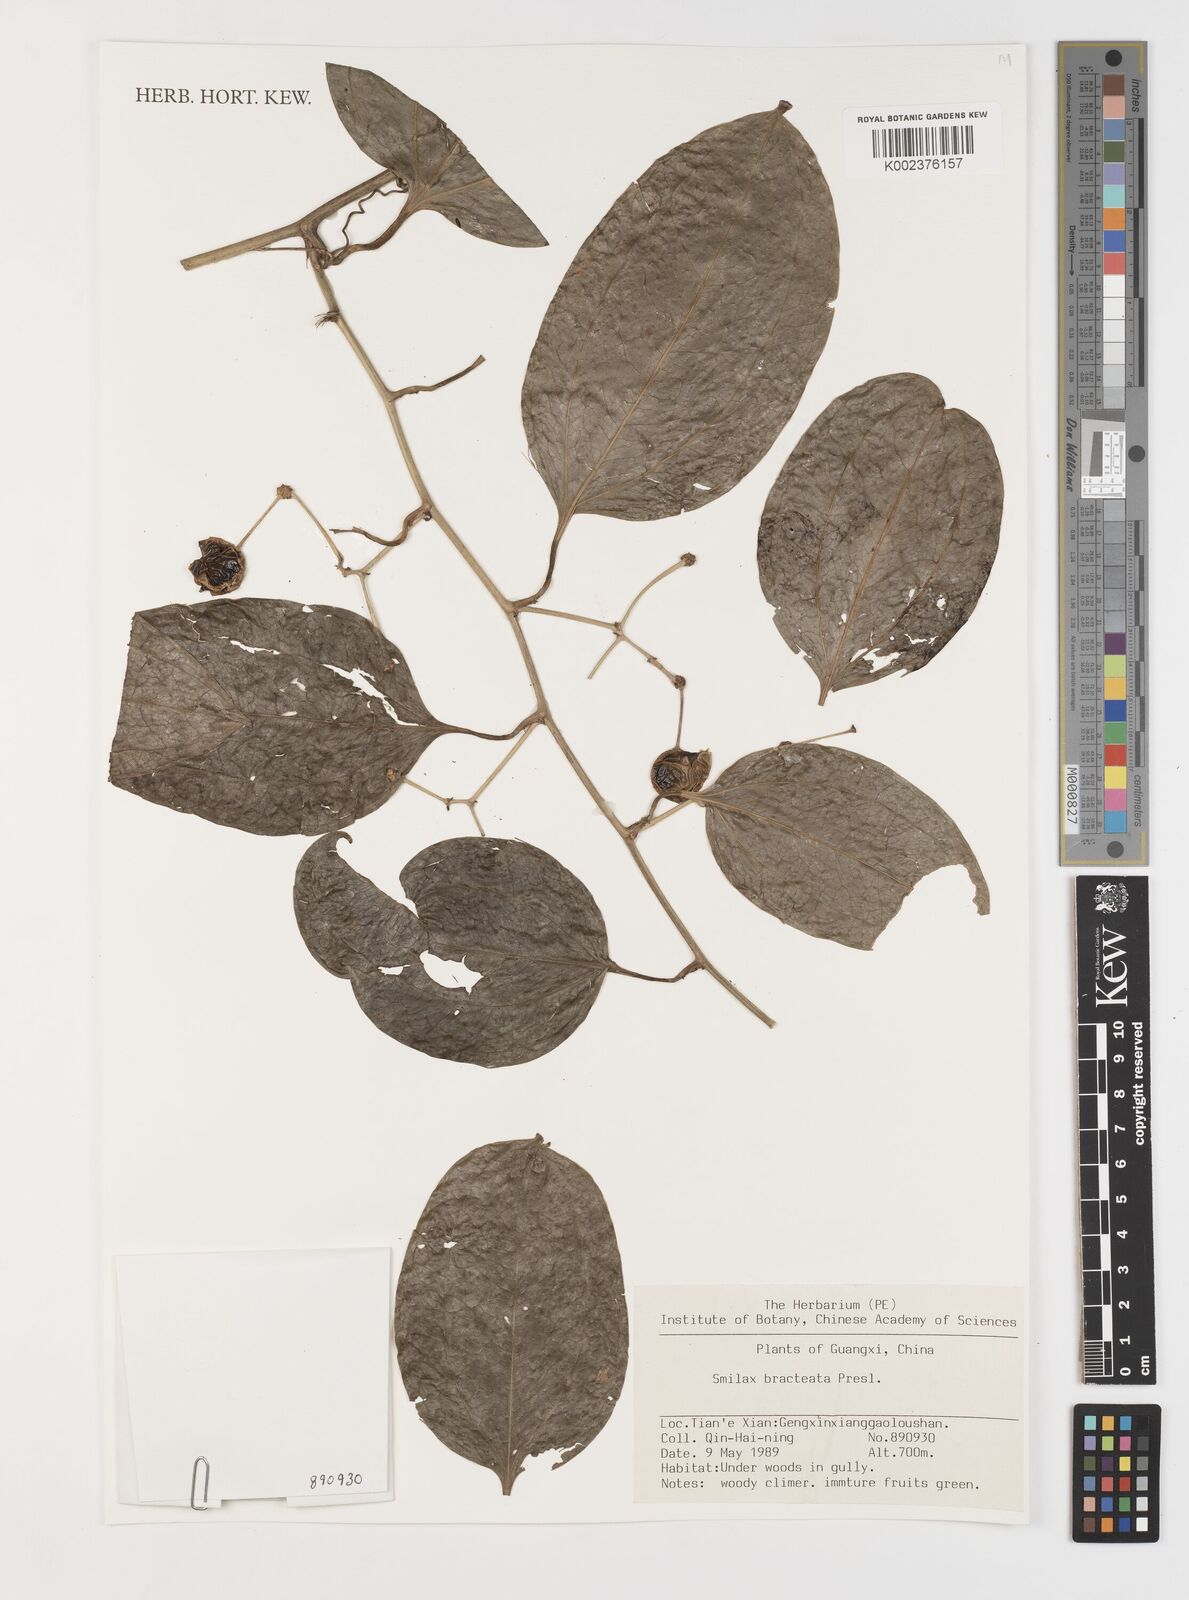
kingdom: Plantae
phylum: Tracheophyta
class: Liliopsida
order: Liliales
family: Smilacaceae
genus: Smilax
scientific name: Smilax bracteata
